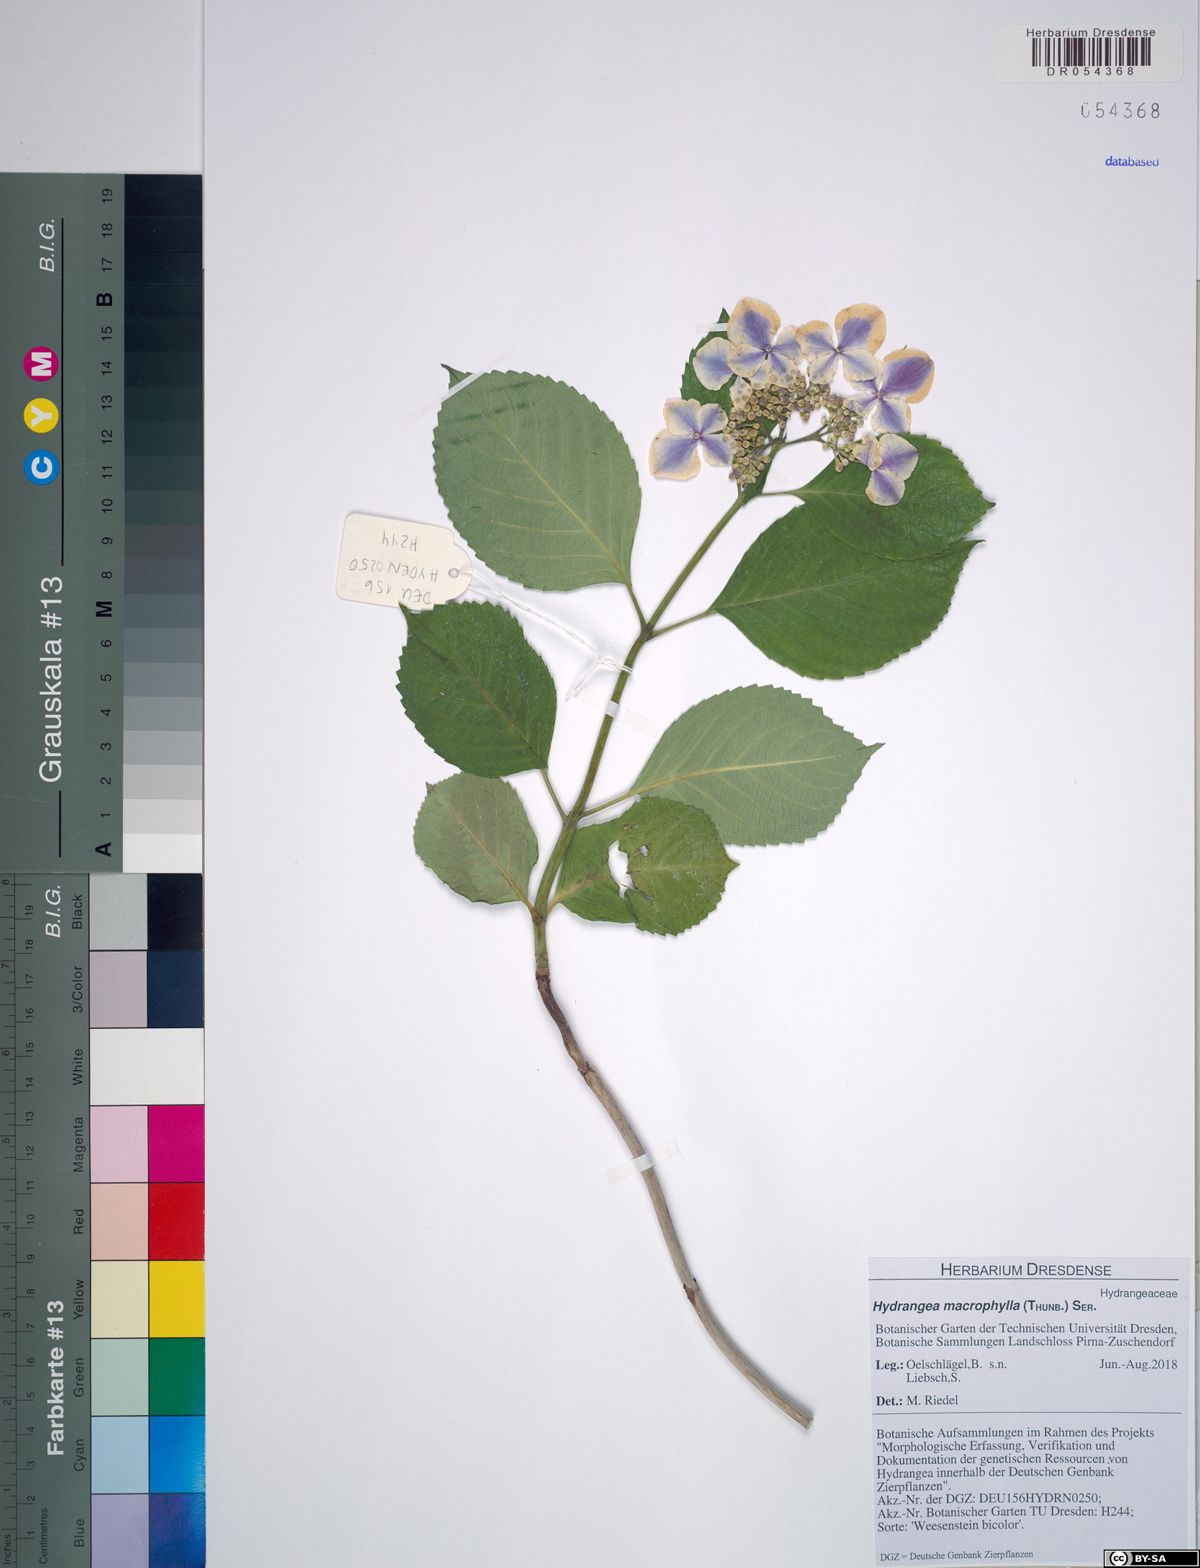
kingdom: Plantae
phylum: Tracheophyta
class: Magnoliopsida
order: Cornales
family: Hydrangeaceae
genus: Hydrangea
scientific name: Hydrangea macrophylla
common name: Hydrangea
